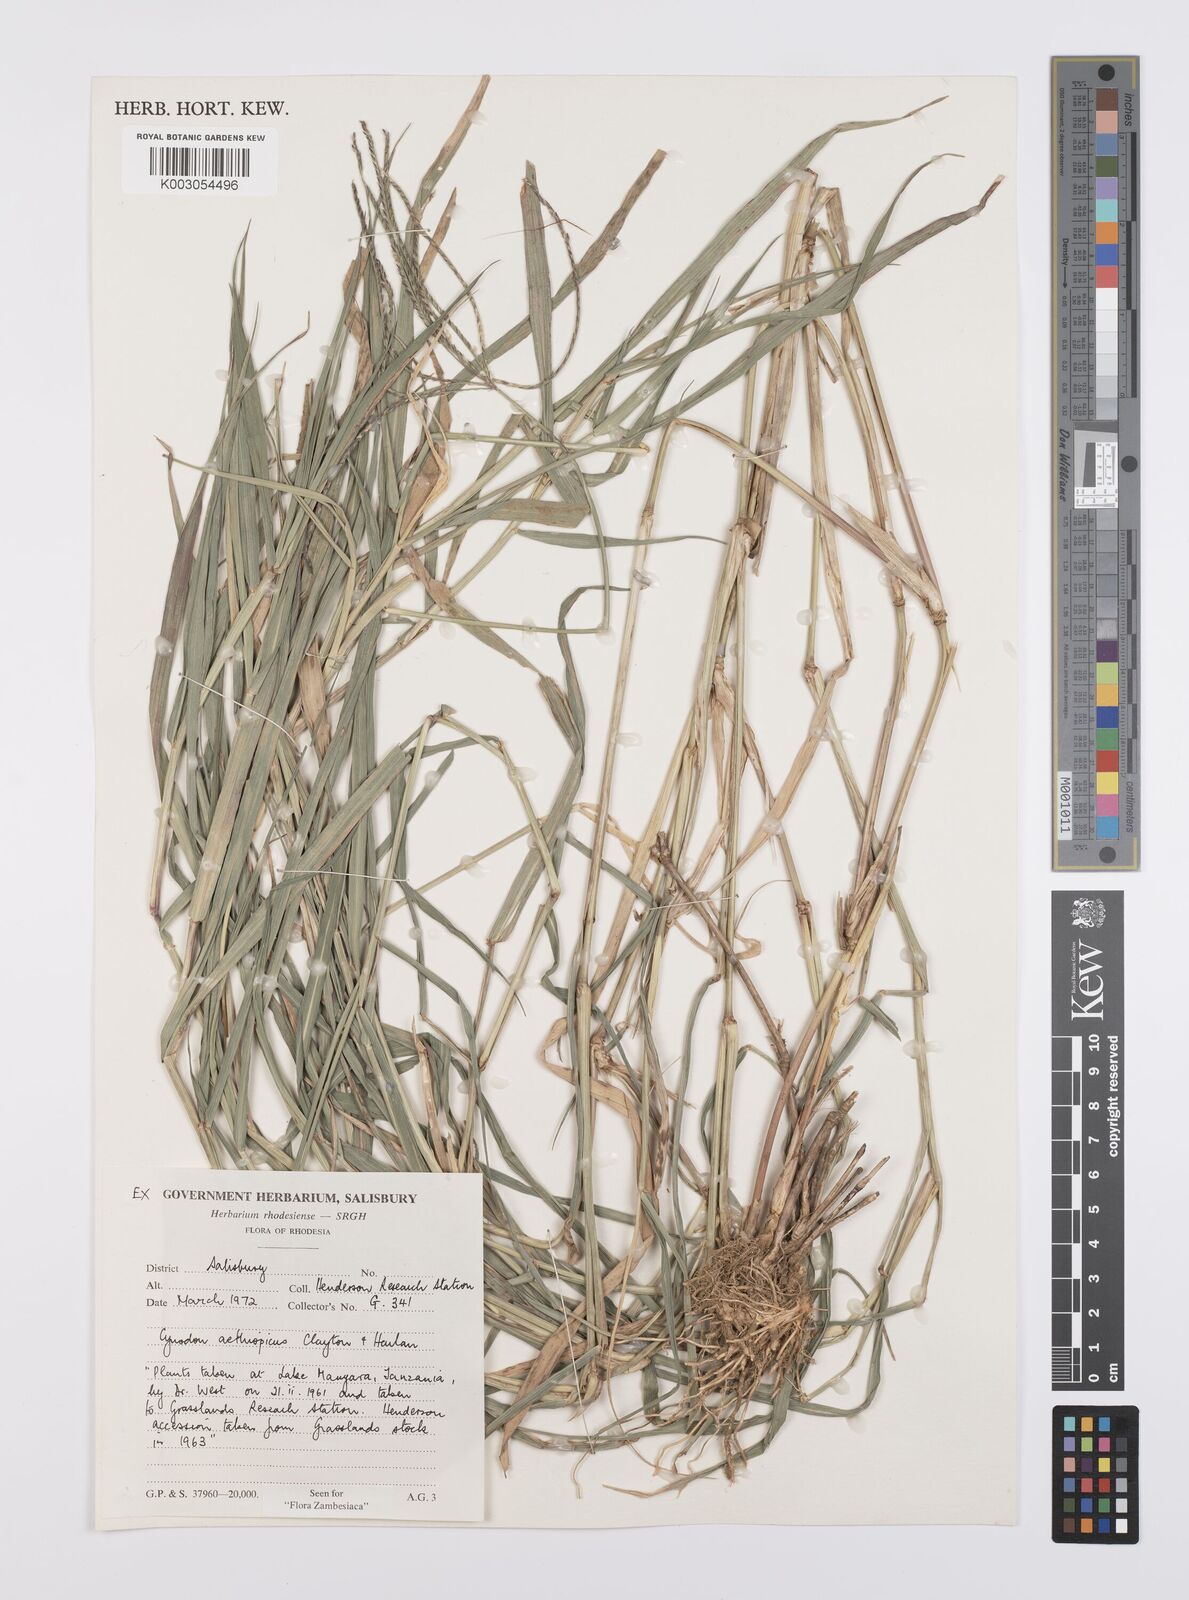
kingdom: Plantae
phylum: Tracheophyta
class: Liliopsida
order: Poales
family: Poaceae
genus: Cynodon
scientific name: Cynodon aethiopicus
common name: Ethiopian dogstooth grass
